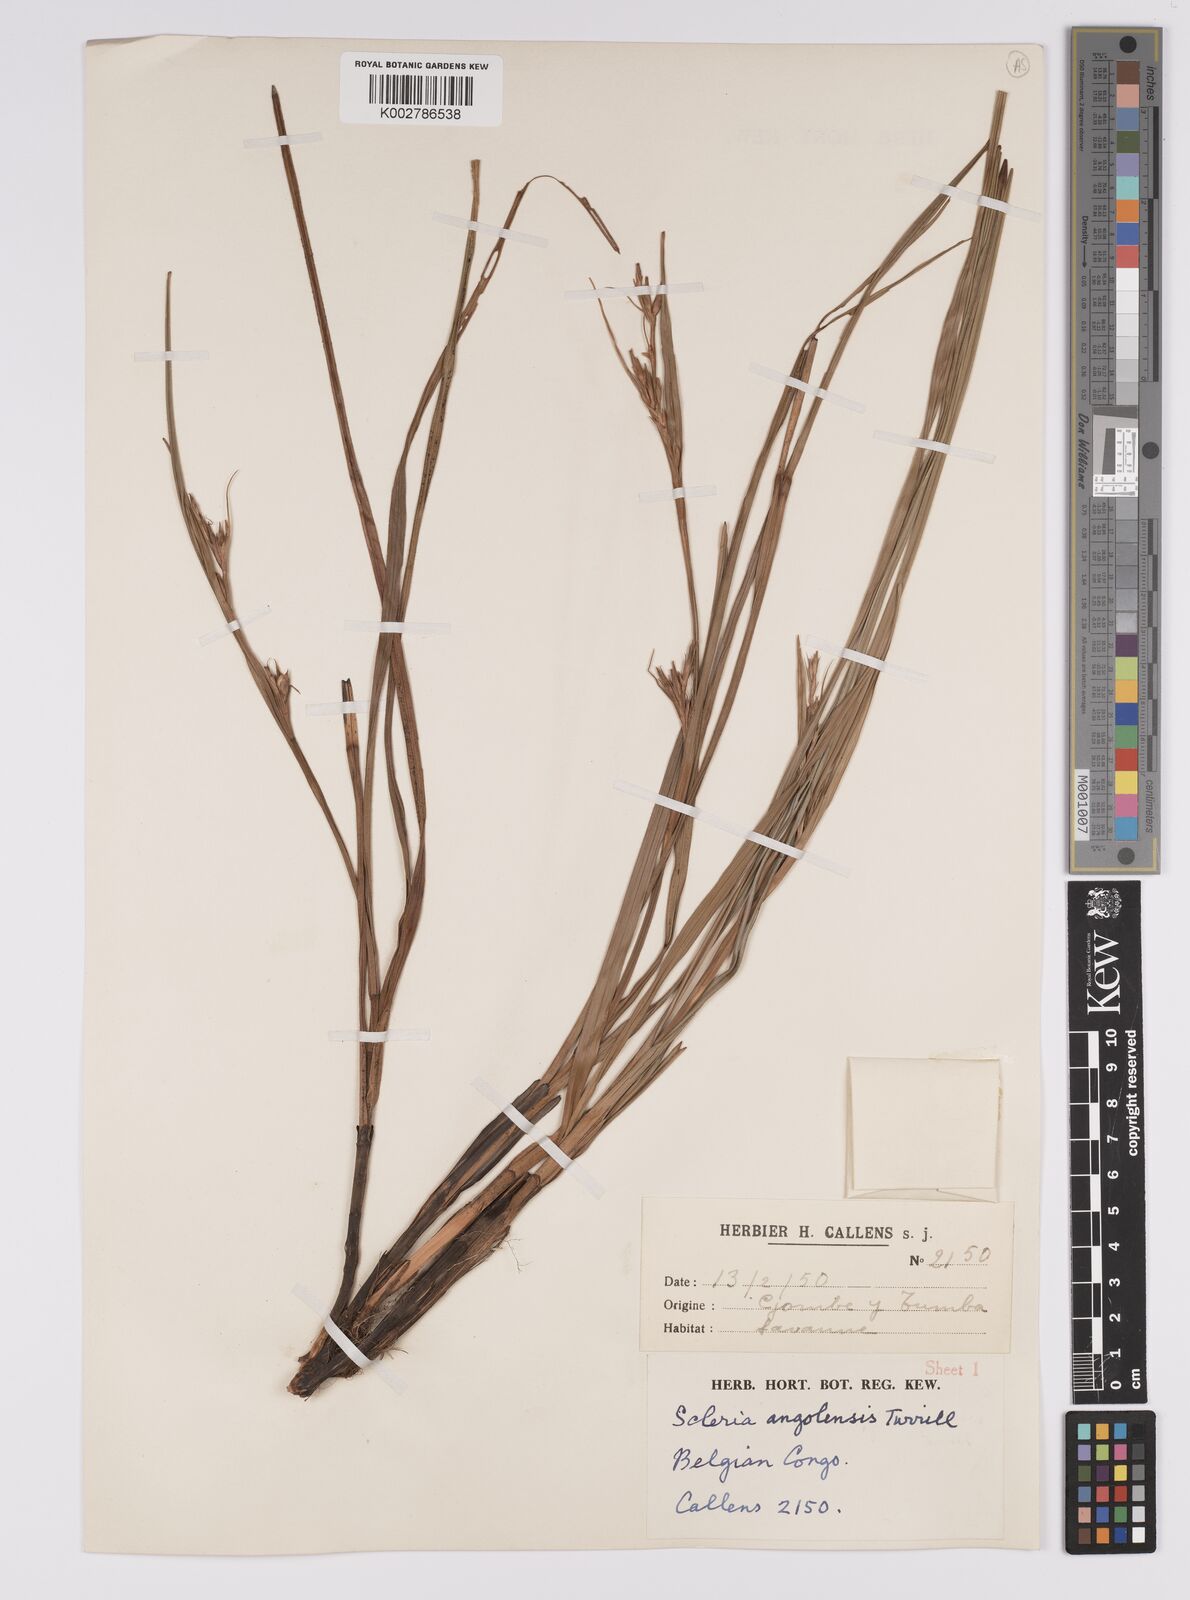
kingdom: Plantae
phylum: Tracheophyta
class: Liliopsida
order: Poales
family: Cyperaceae
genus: Scleria
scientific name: Scleria induta
